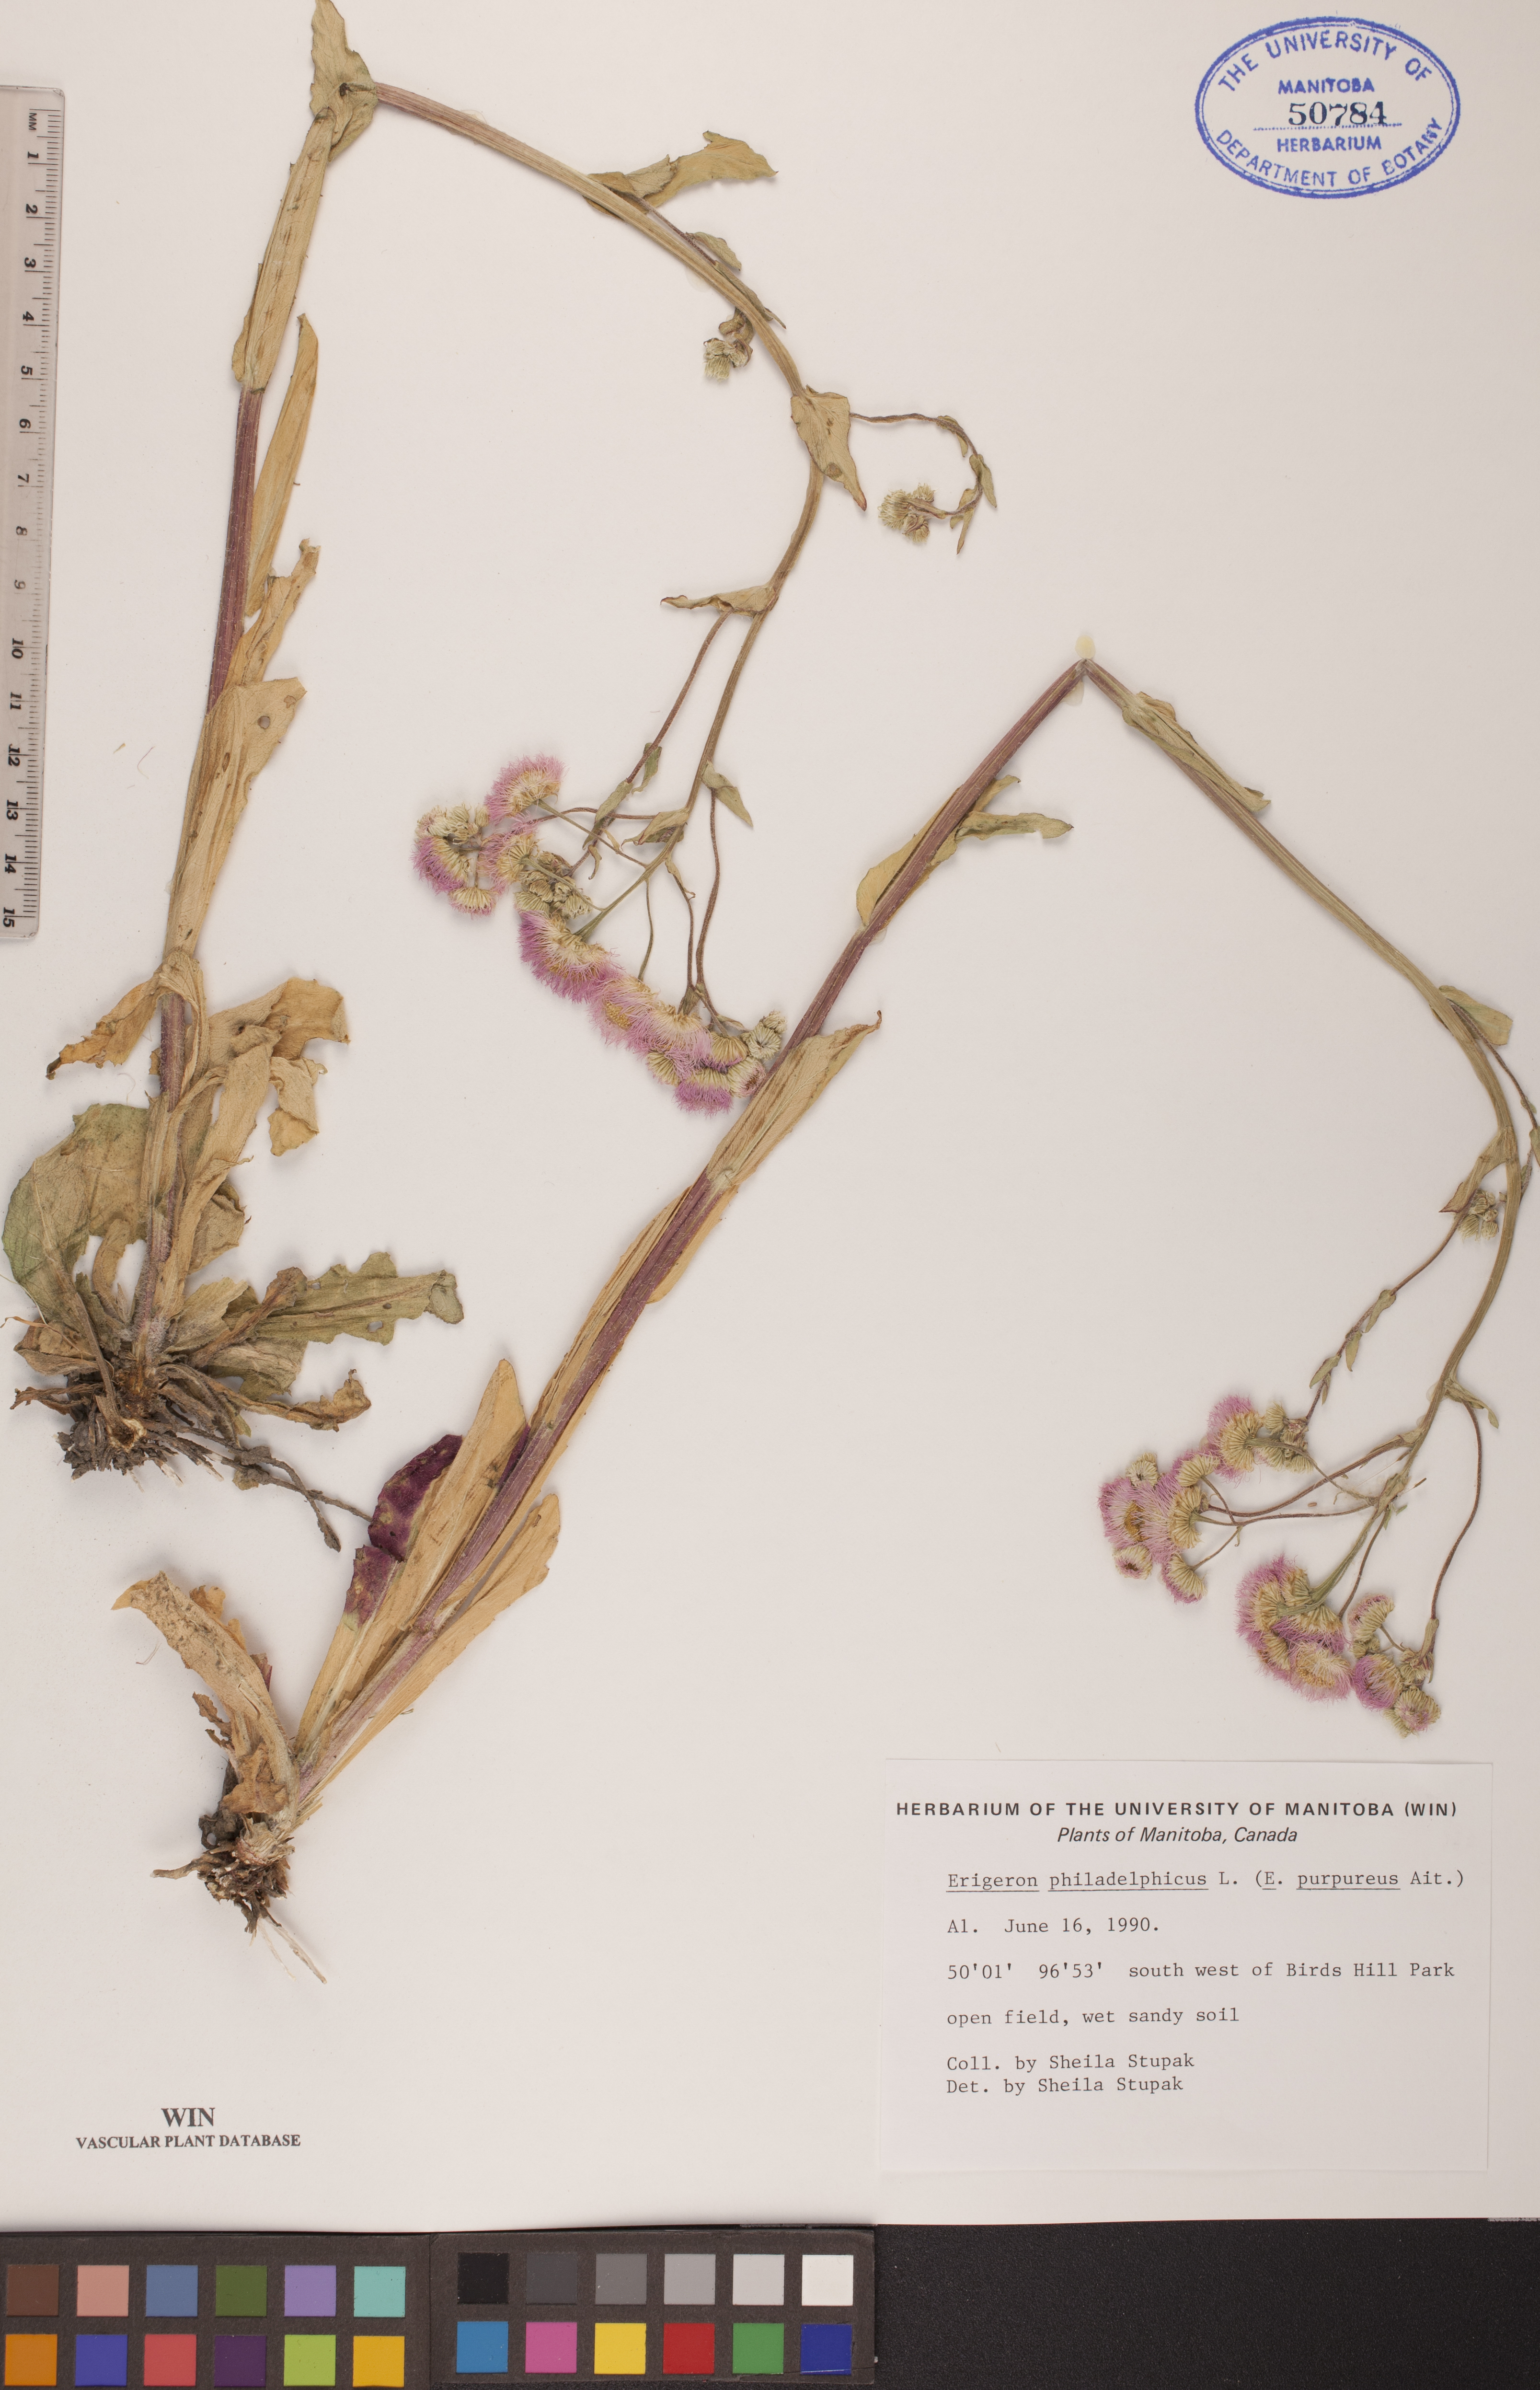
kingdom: Plantae
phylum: Tracheophyta
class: Magnoliopsida
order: Asterales
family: Asteraceae
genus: Erigeron
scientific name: Erigeron philadelphicus
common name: Robin's-plantain
